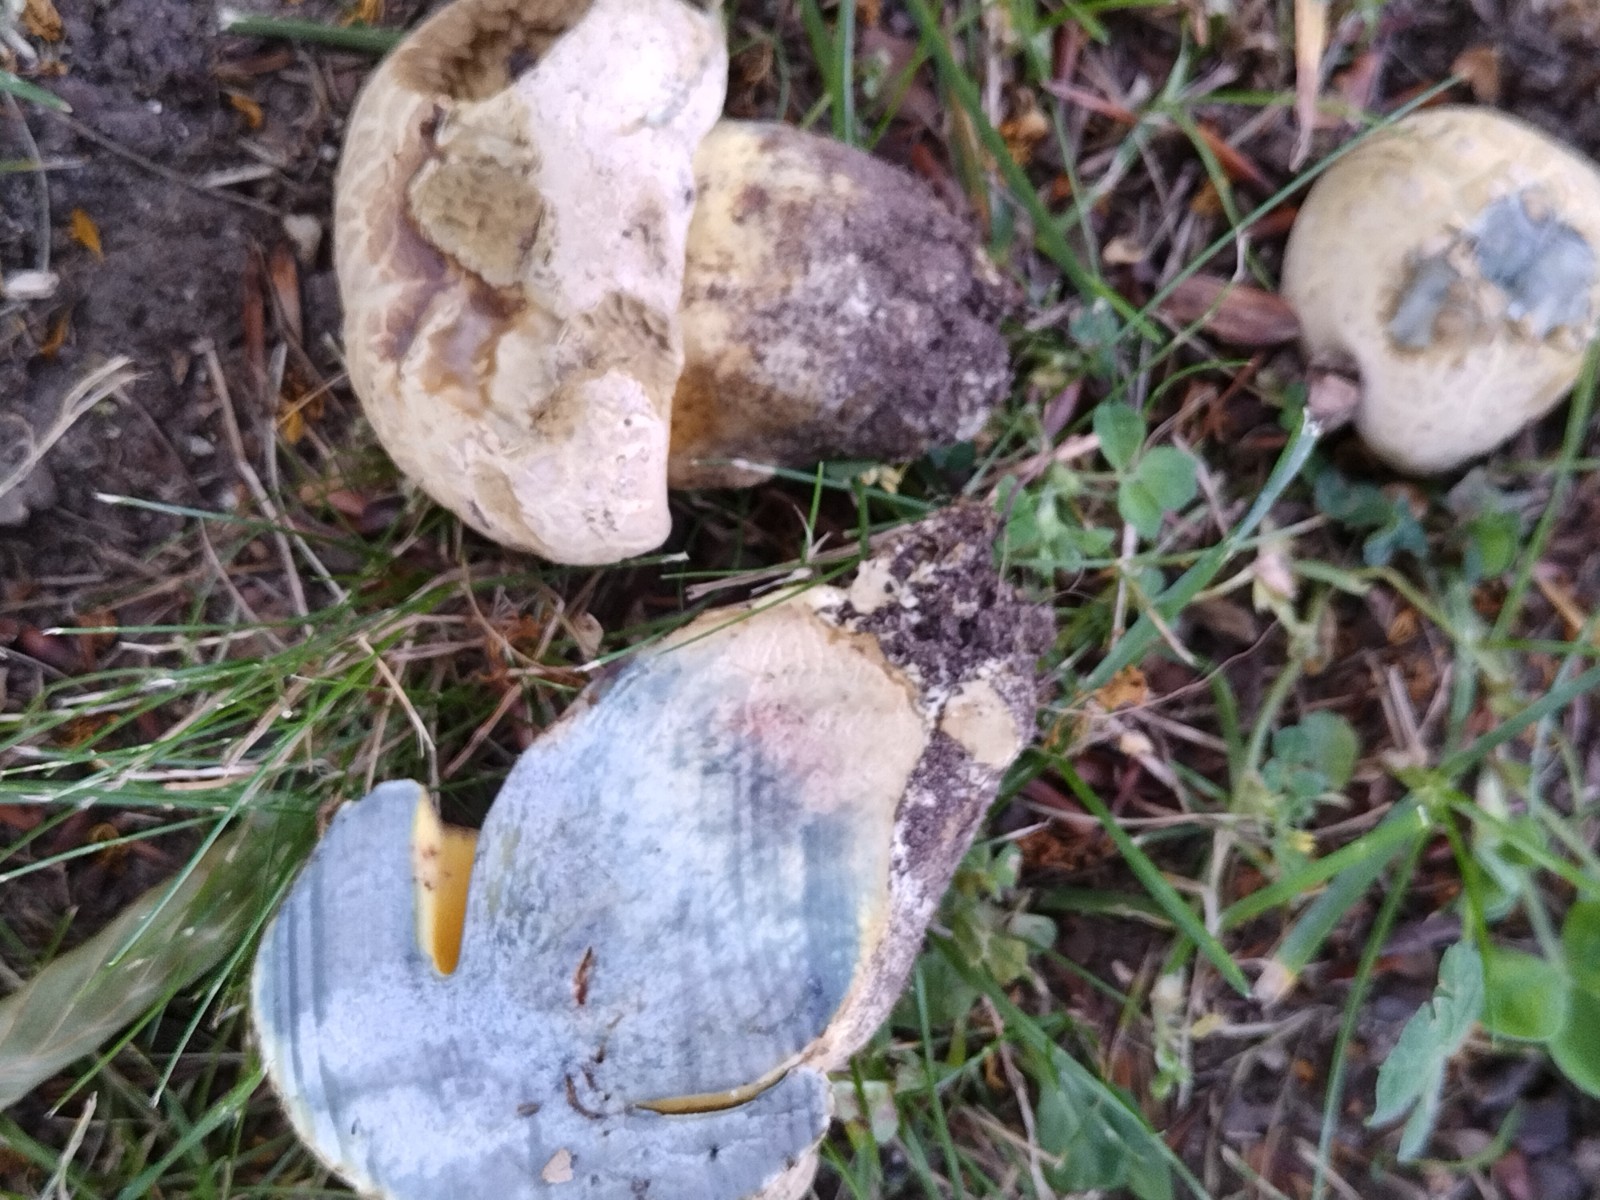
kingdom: Fungi
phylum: Basidiomycota
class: Agaricomycetes
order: Boletales
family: Boletaceae
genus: Caloboletus
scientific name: Caloboletus radicans
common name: rod-rørhat
